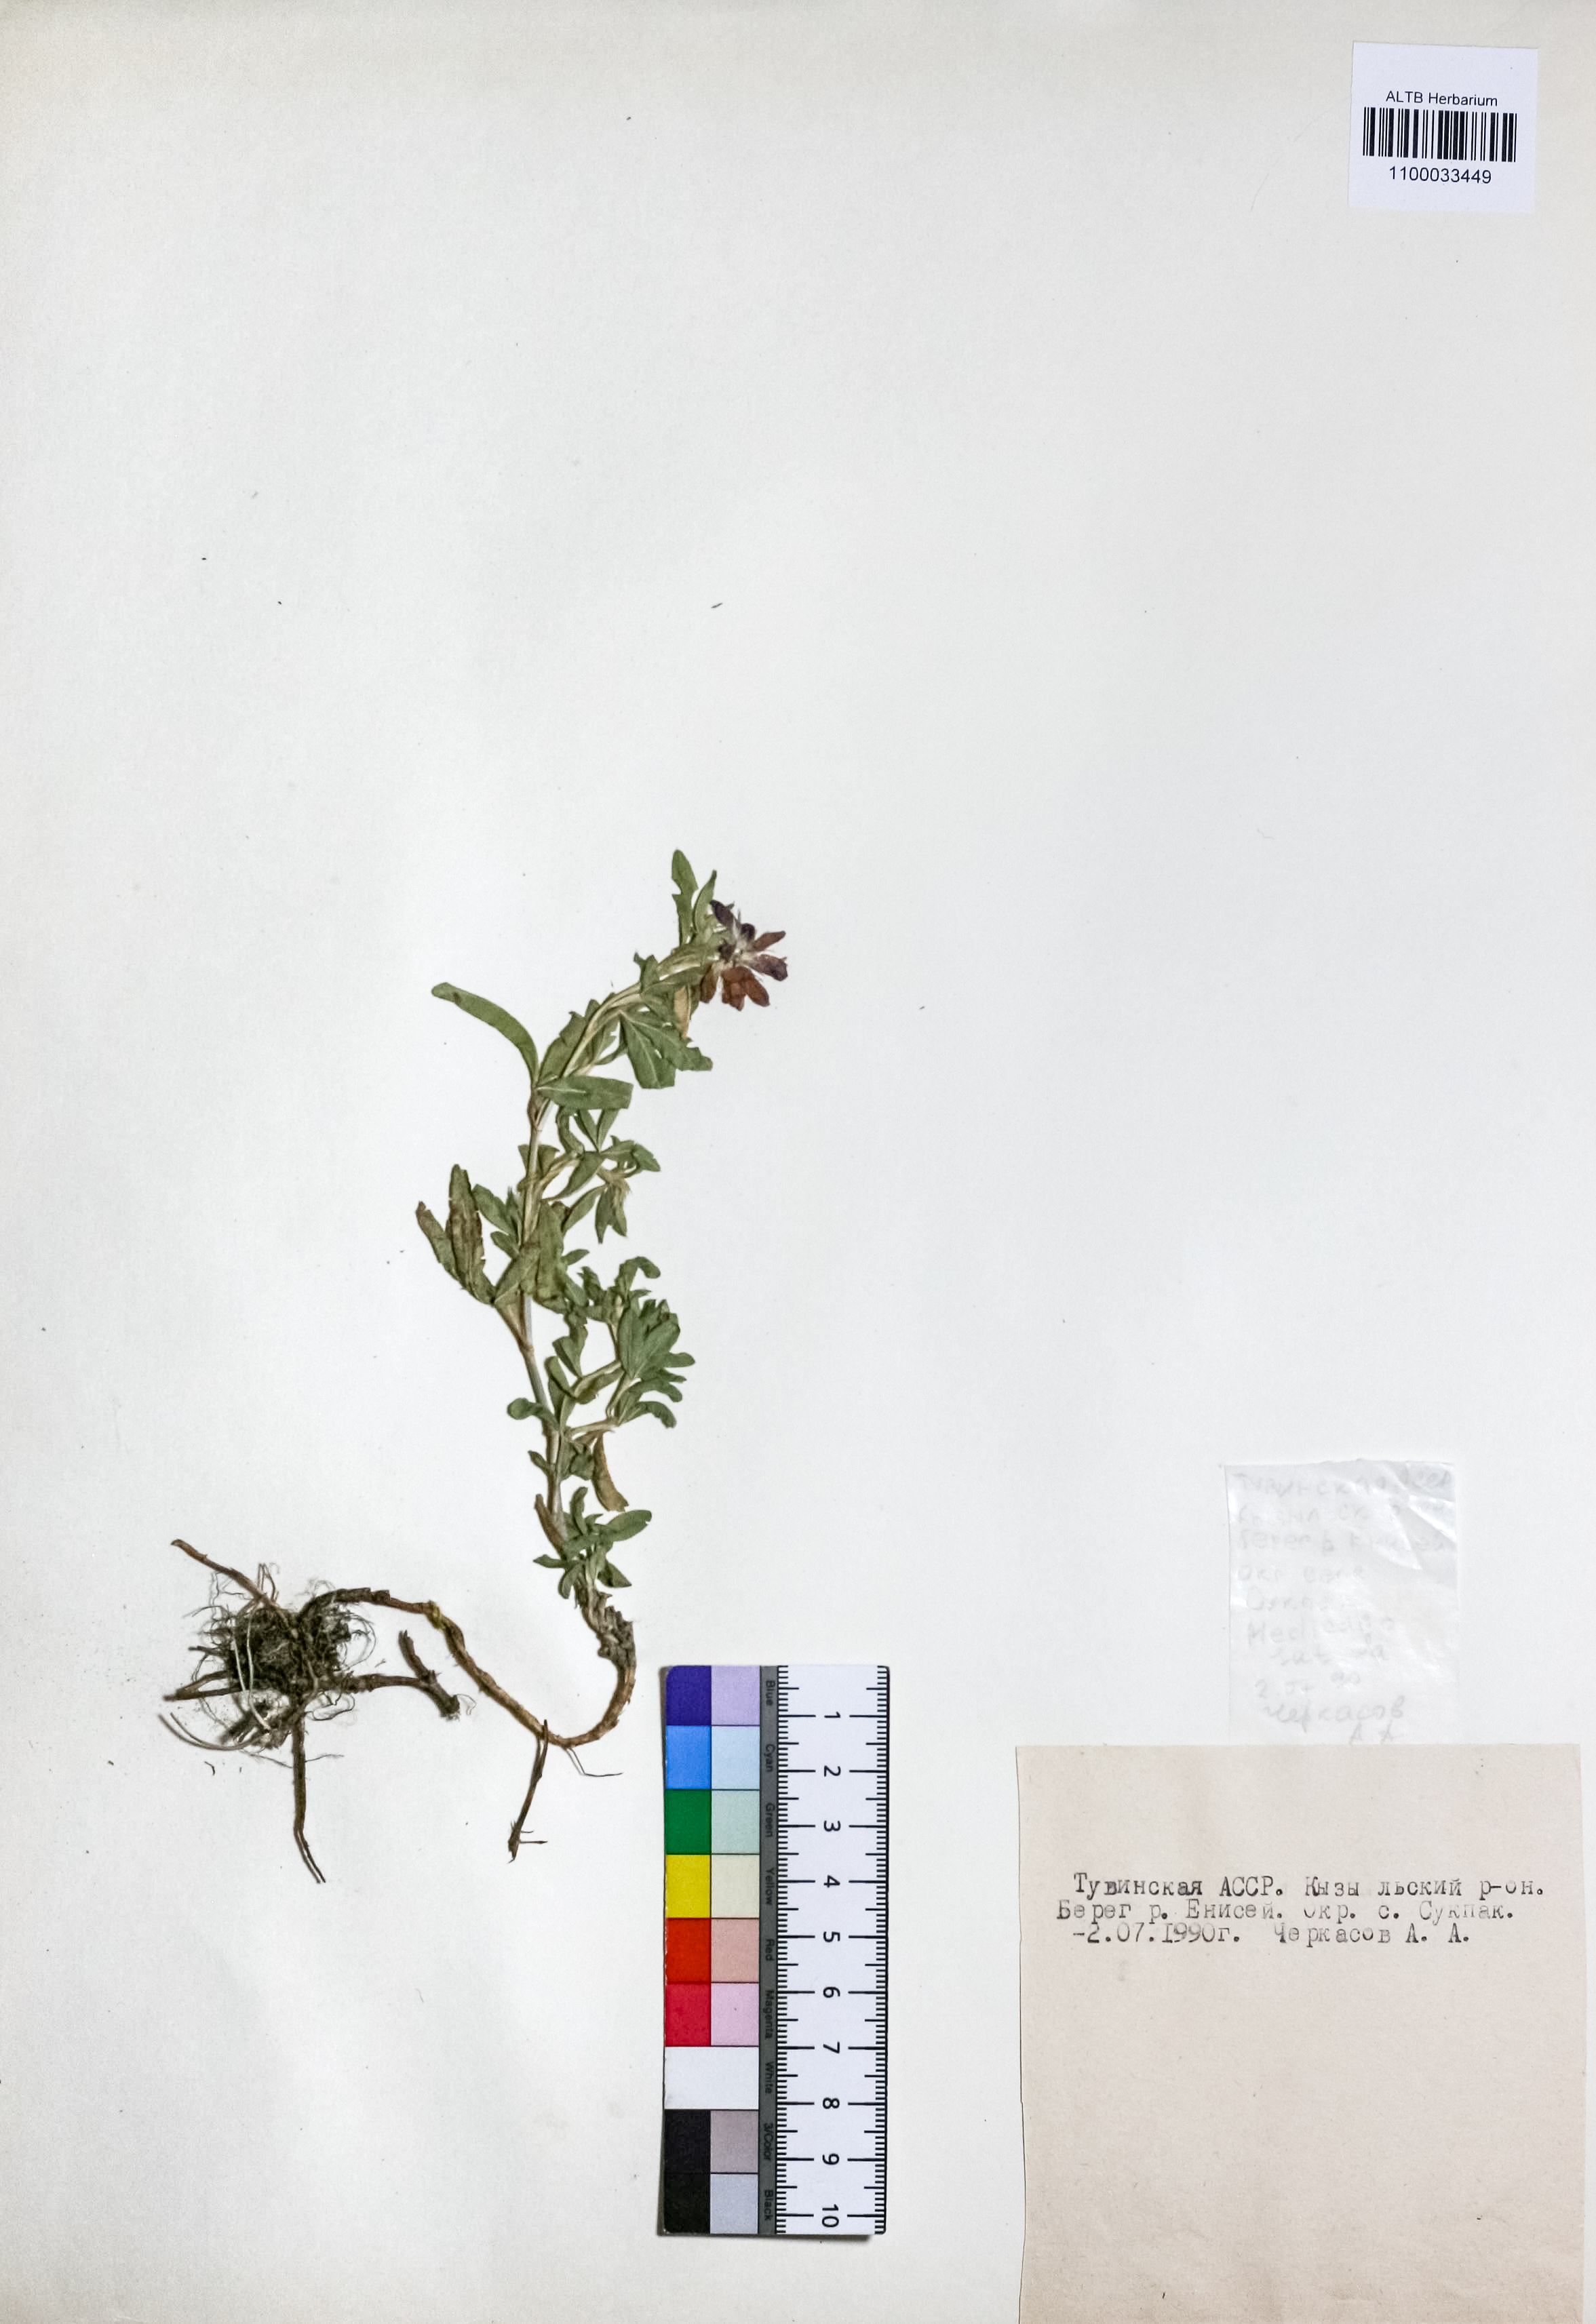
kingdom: Plantae
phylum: Tracheophyta
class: Magnoliopsida
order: Fabales
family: Fabaceae
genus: Medicago
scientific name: Medicago sativa
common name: Alfalfa
